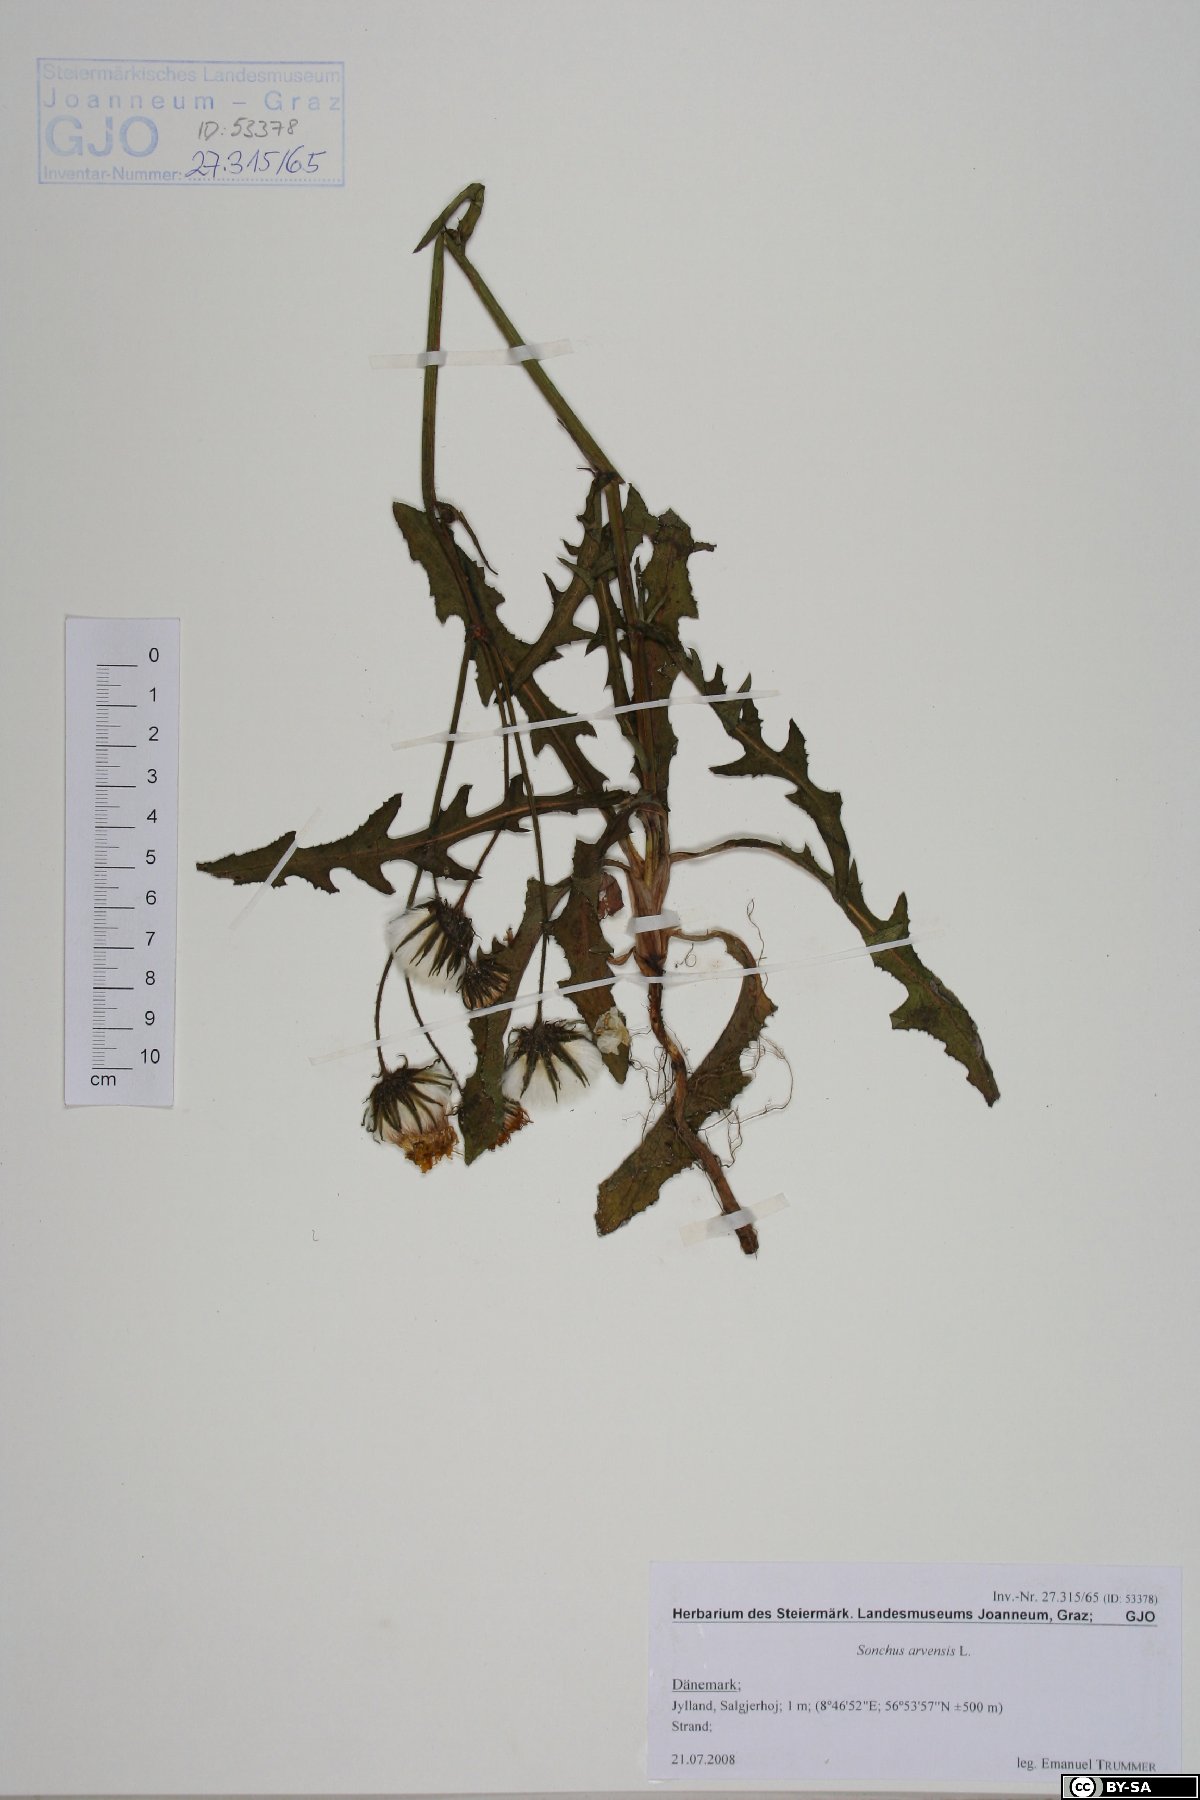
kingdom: Plantae
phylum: Tracheophyta
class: Magnoliopsida
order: Asterales
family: Asteraceae
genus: Sonchus
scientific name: Sonchus arvensis
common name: Perennial sow-thistle
